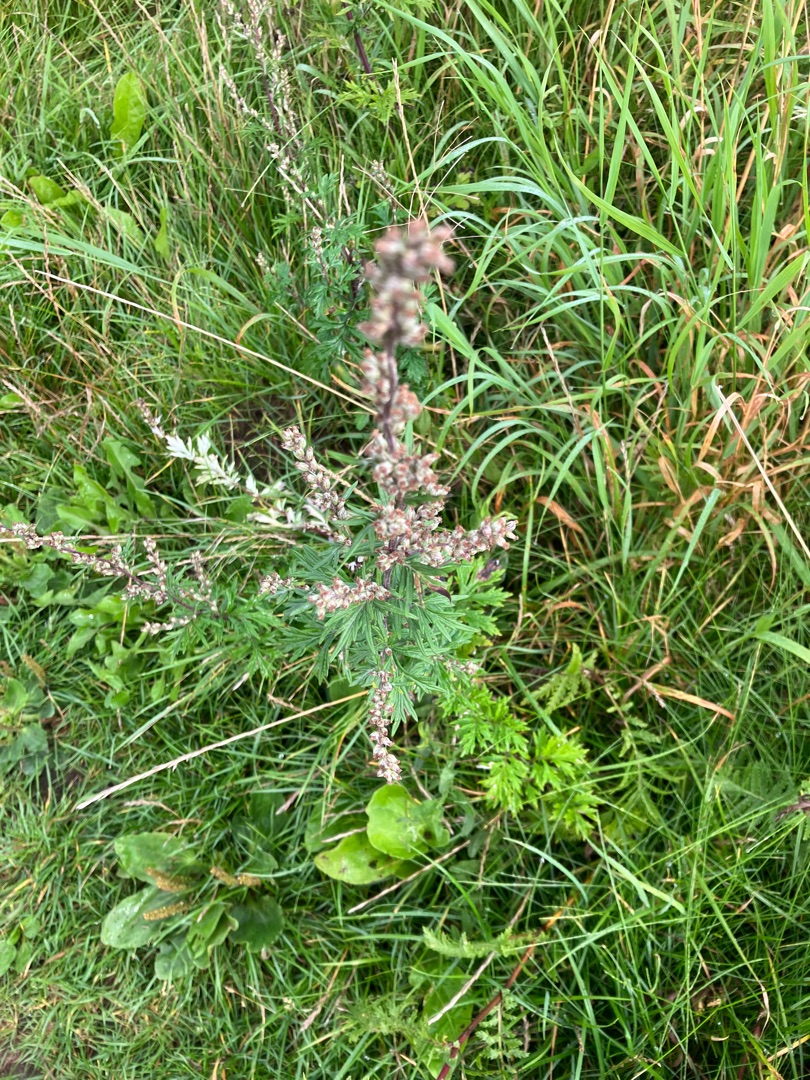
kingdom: Plantae
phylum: Tracheophyta
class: Magnoliopsida
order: Asterales
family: Asteraceae
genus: Artemisia
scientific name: Artemisia vulgaris
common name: Grå-bynke
